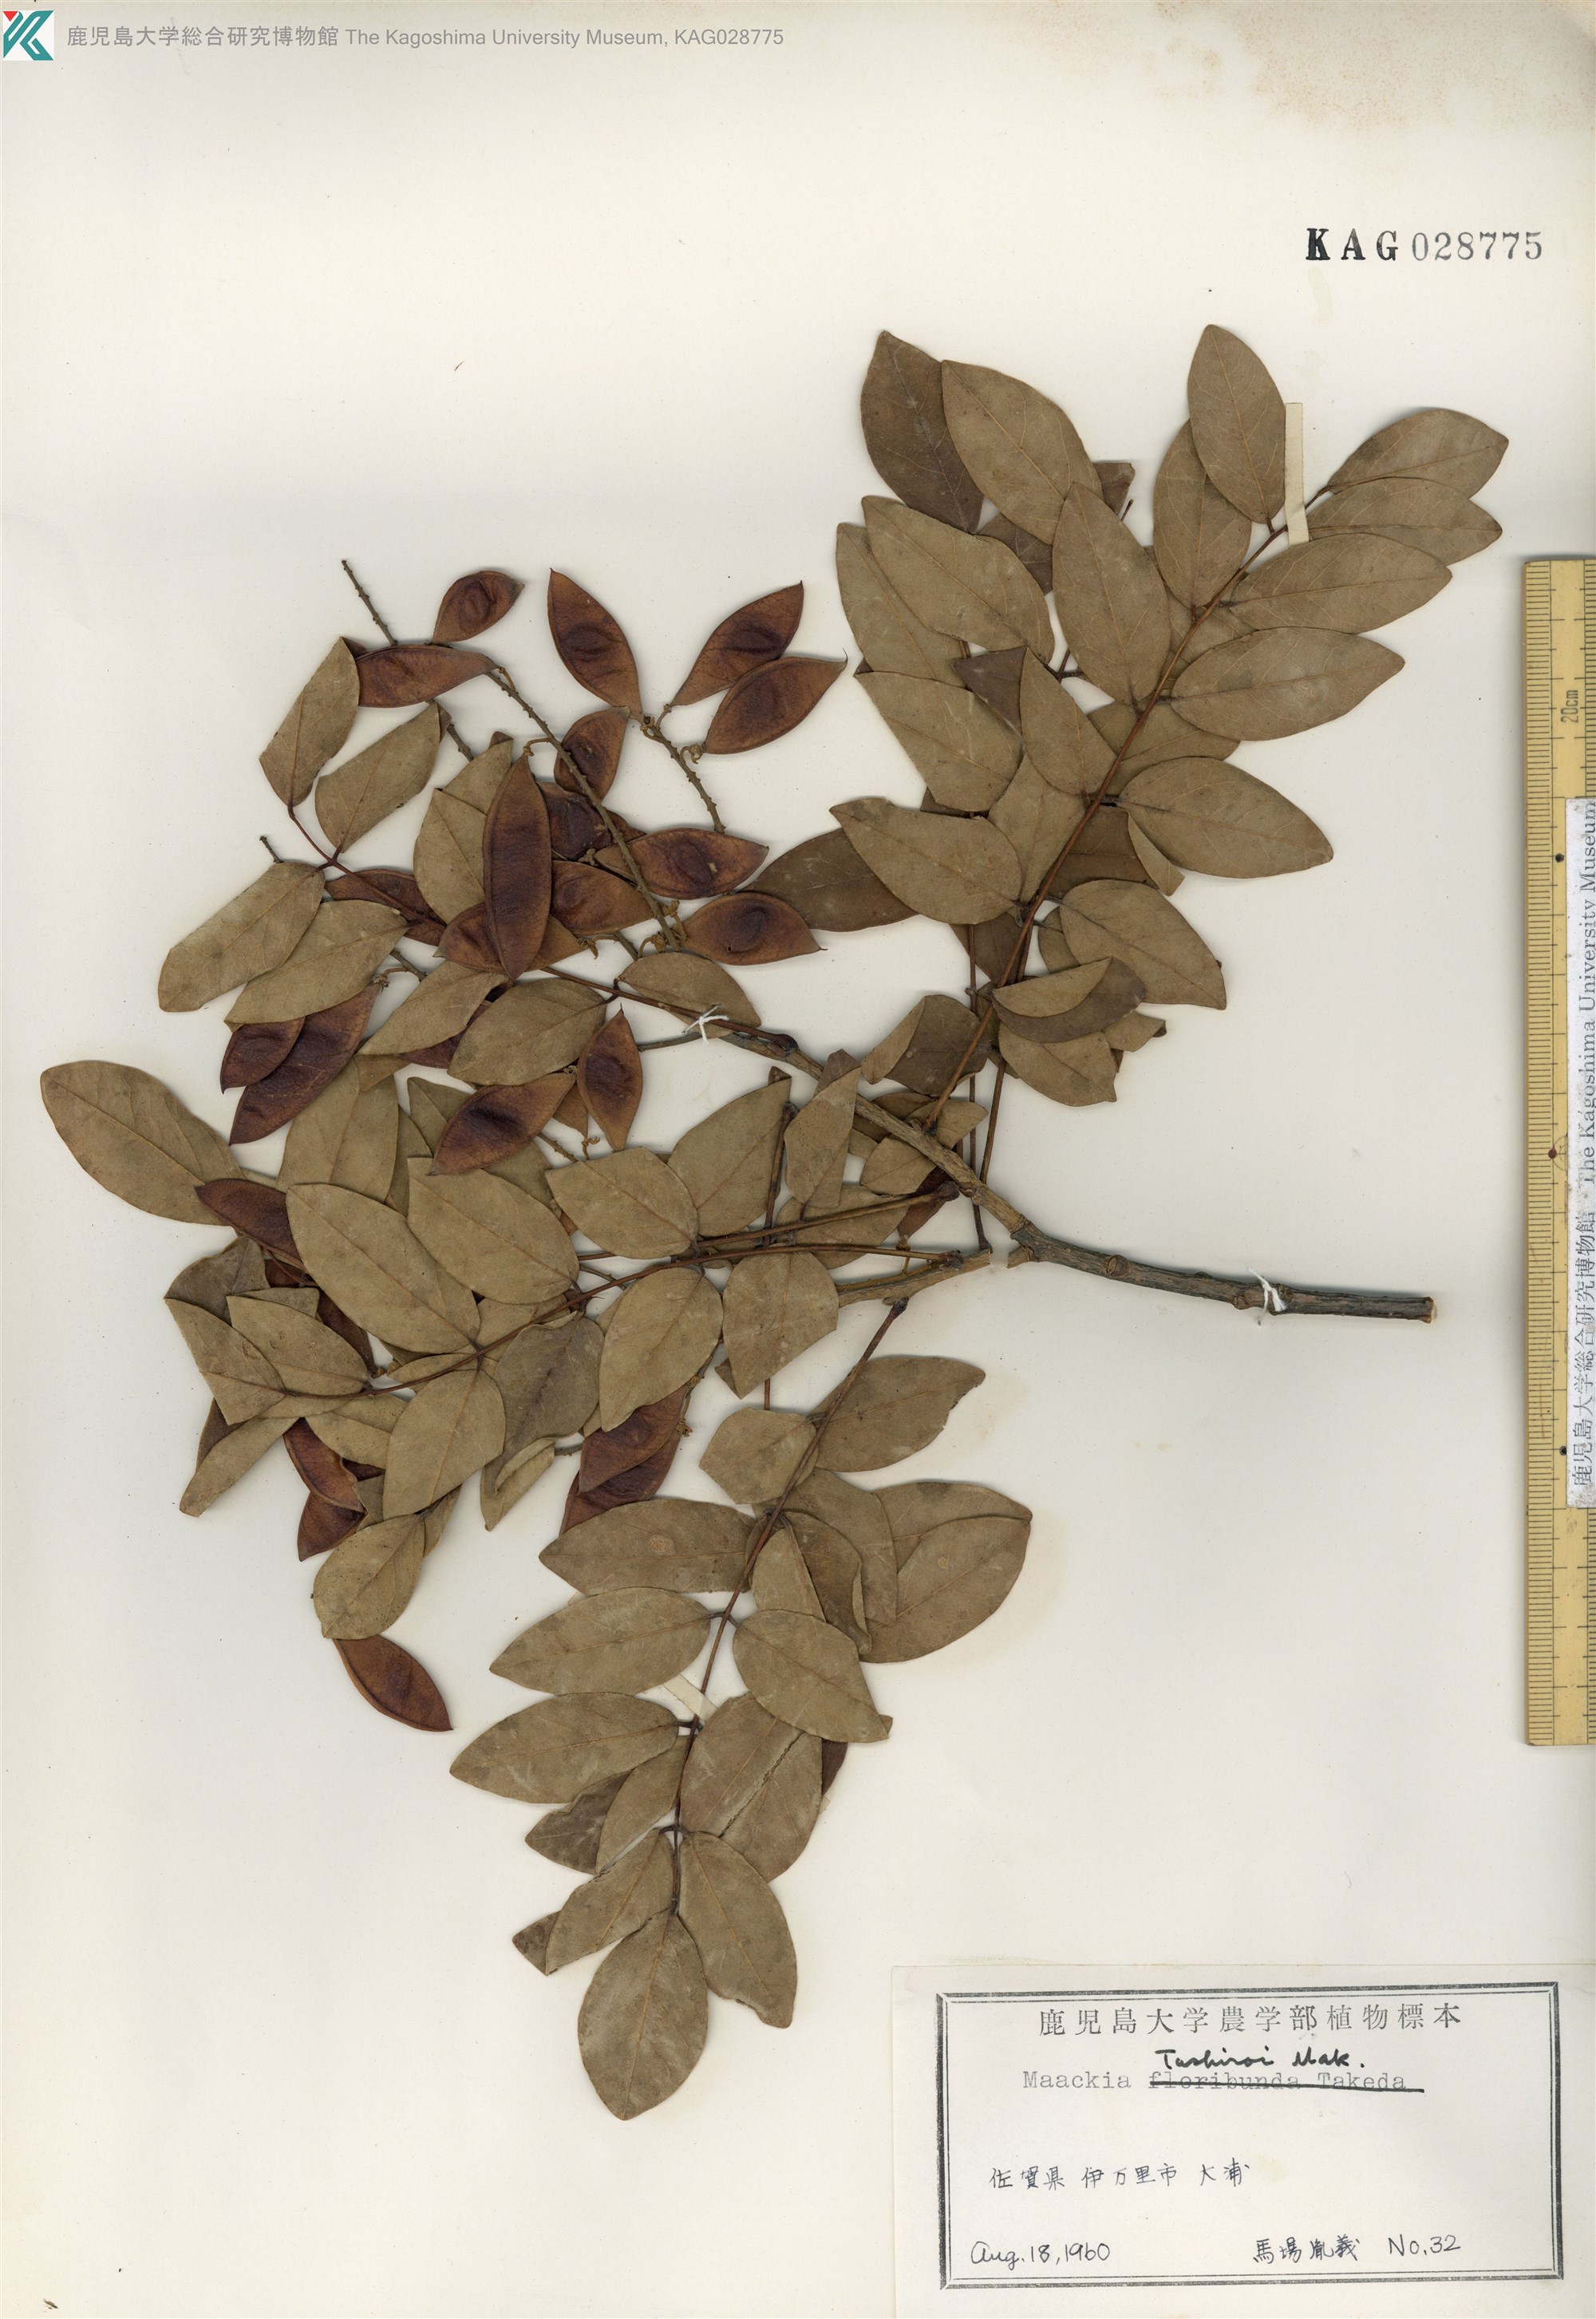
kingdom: Plantae
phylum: Tracheophyta
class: Magnoliopsida
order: Fabales
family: Fabaceae
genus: Maackia
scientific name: Maackia tashiroi
